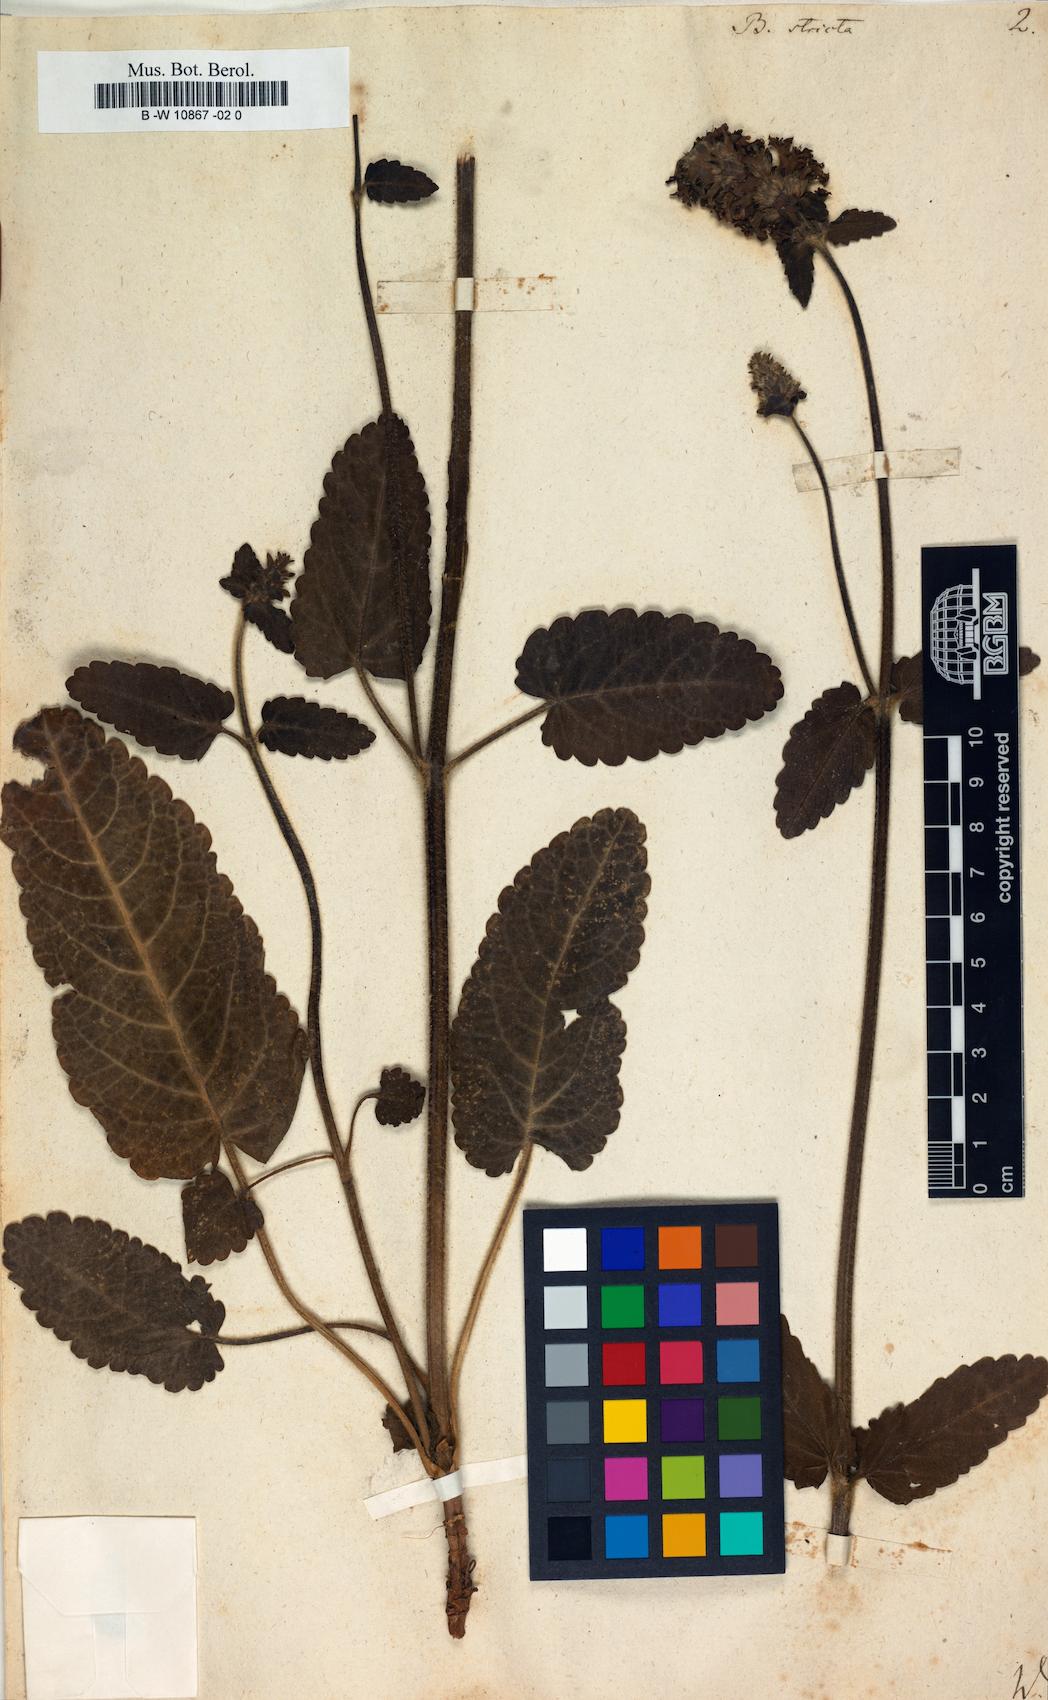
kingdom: Plantae
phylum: Tracheophyta
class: Magnoliopsida
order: Lamiales
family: Lamiaceae
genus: Betonica
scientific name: Betonica officinalis
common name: Bishop's-wort
